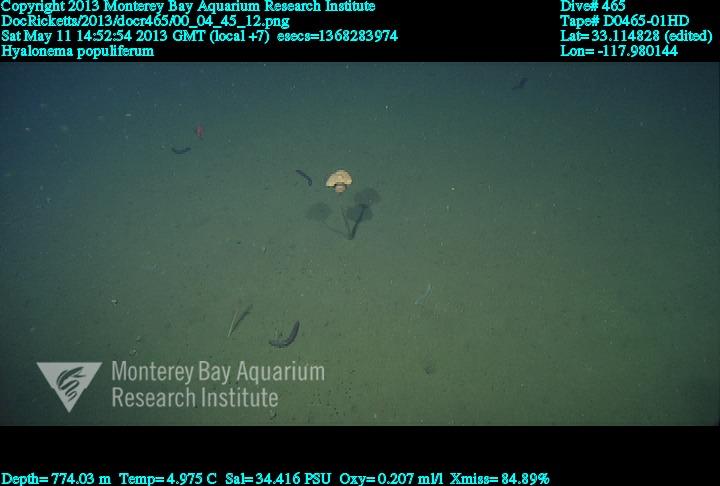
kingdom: Animalia
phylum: Porifera
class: Hexactinellida
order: Amphidiscosida
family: Hyalonematidae
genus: Hyalonema
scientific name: Hyalonema populiferum
